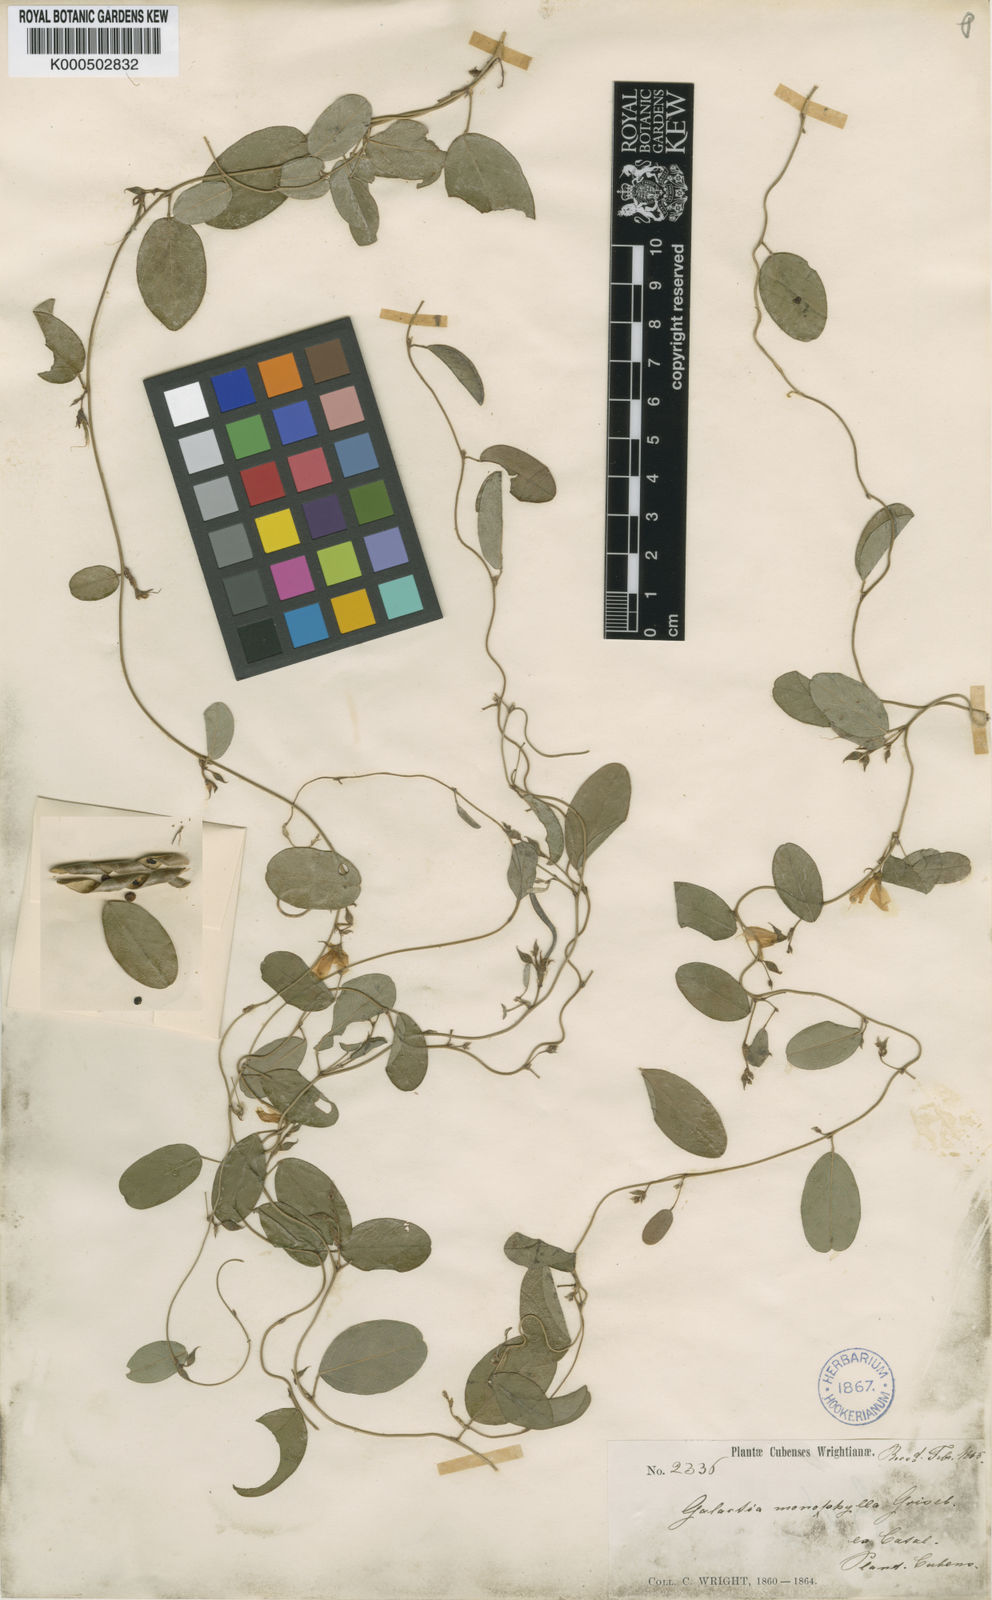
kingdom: Plantae
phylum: Tracheophyta
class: Magnoliopsida
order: Fabales
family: Fabaceae
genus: Galactia
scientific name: Galactia monophylla
